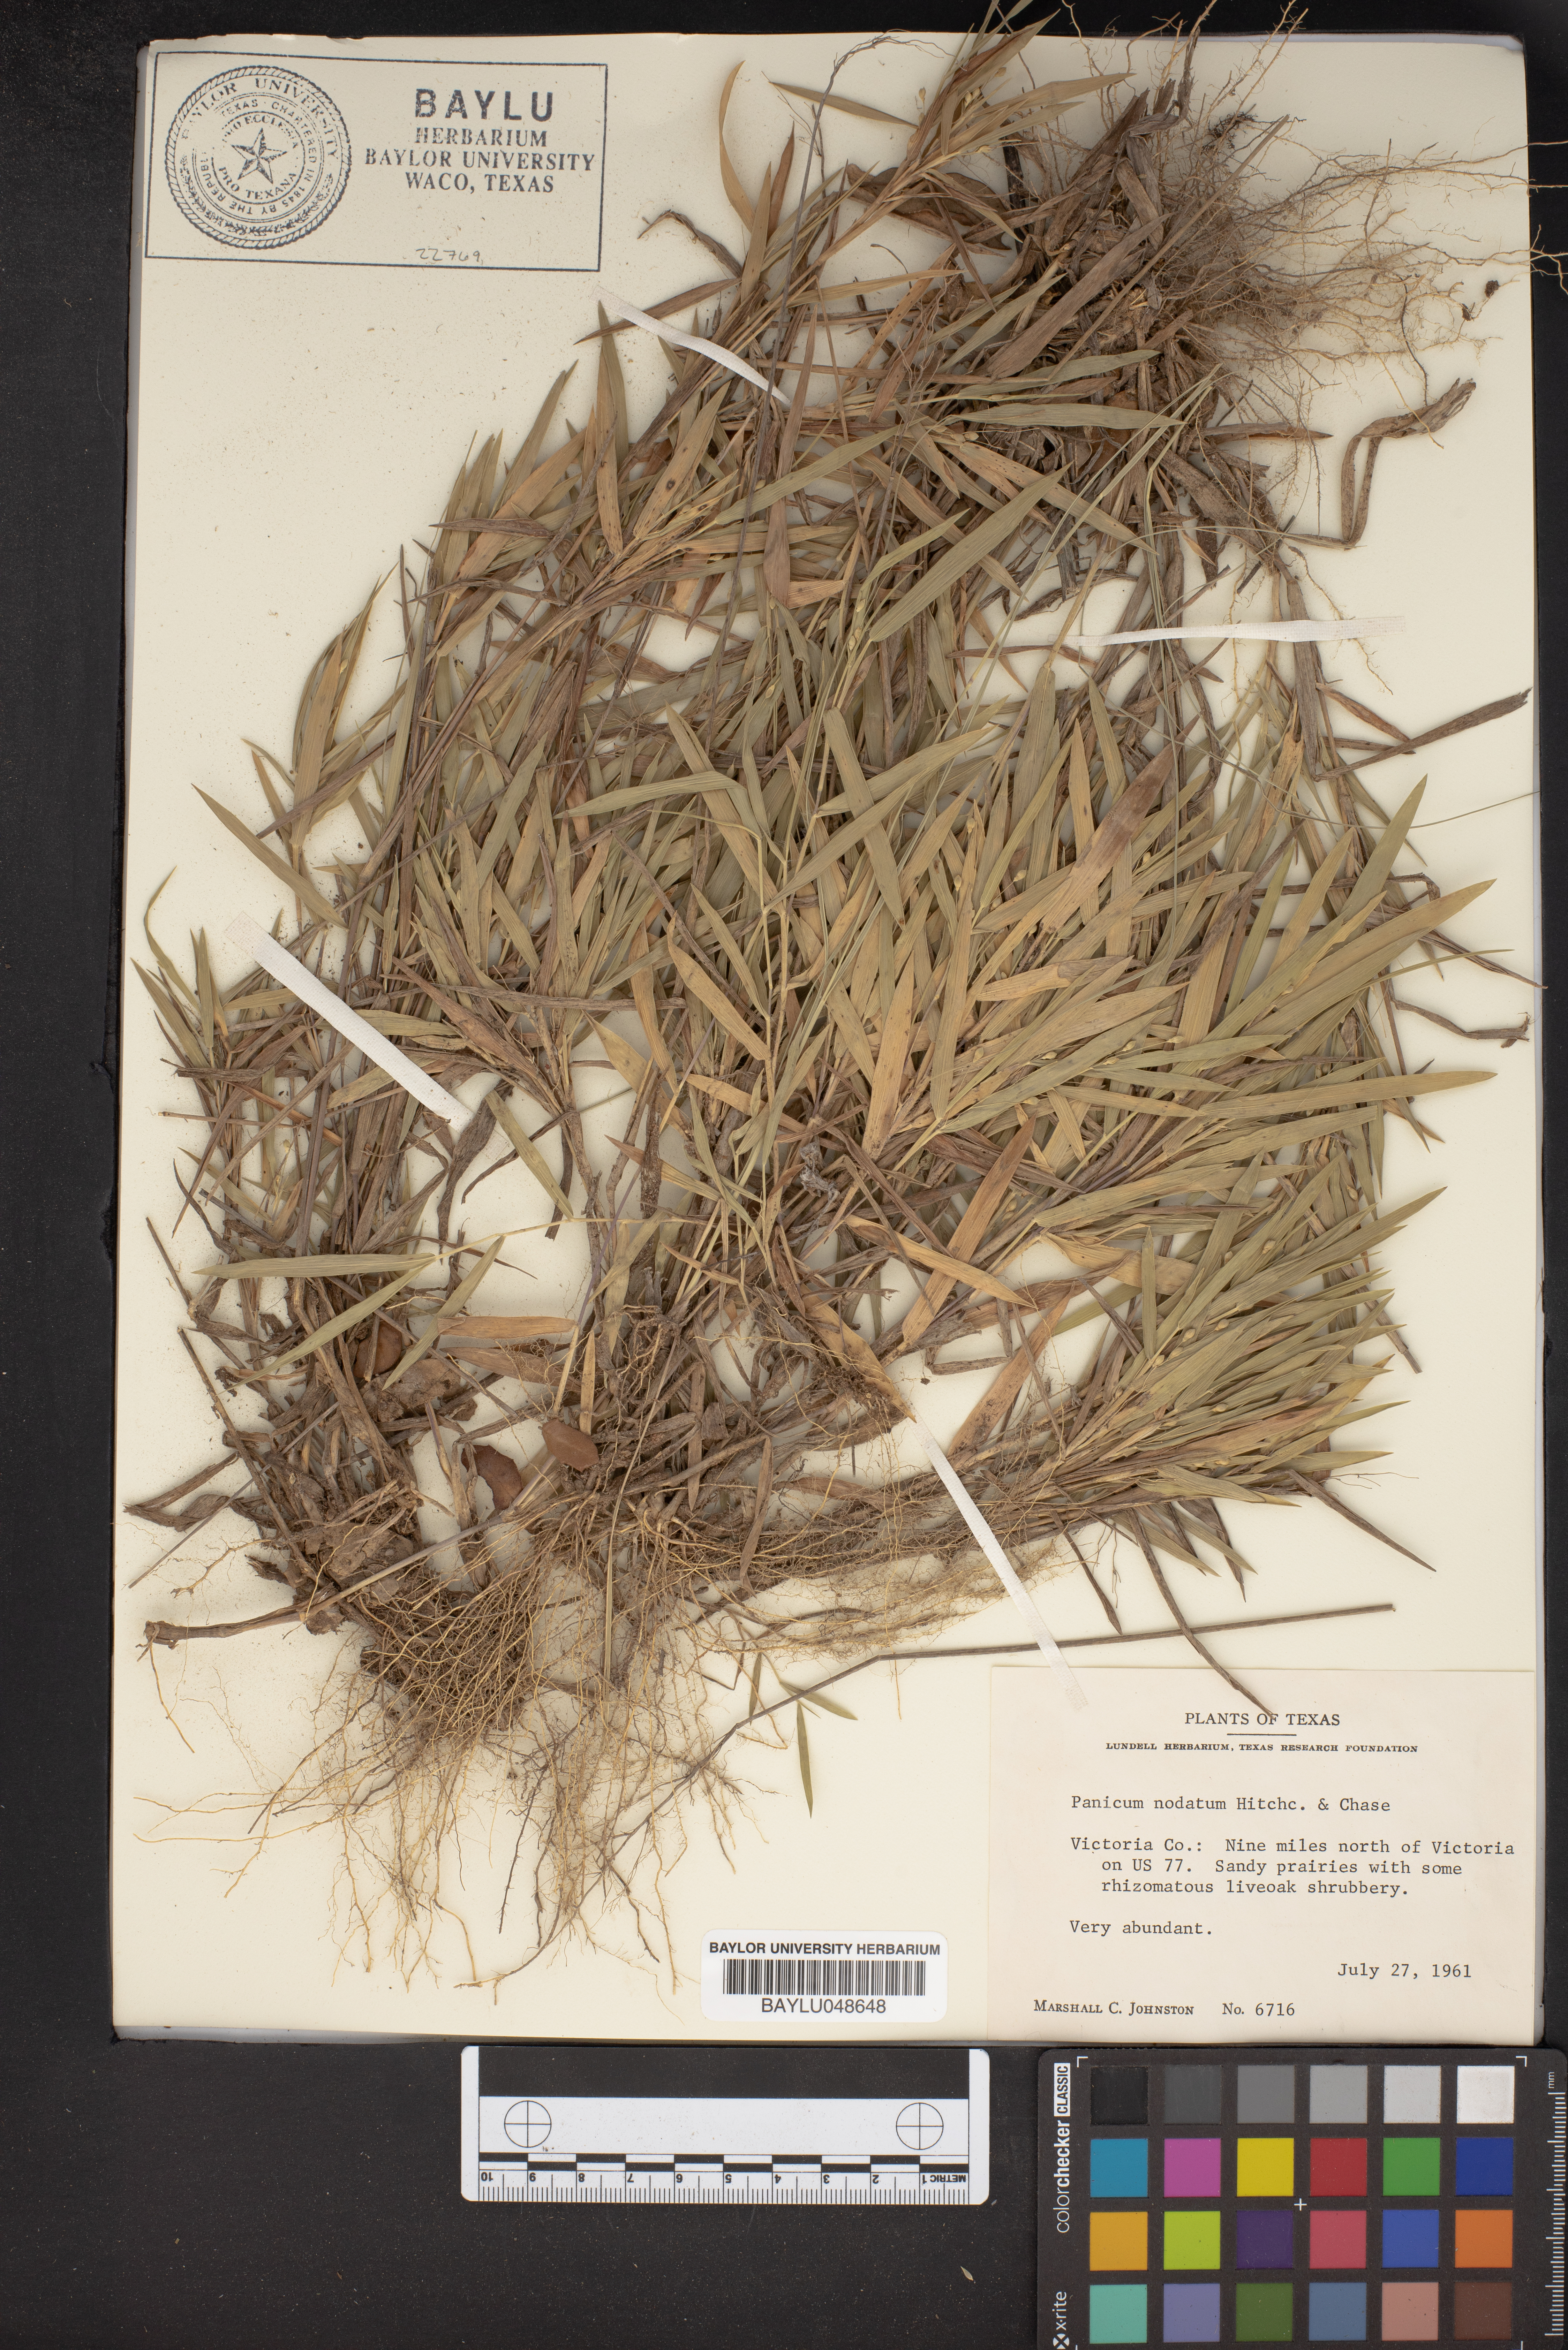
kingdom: Plantae
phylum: Tracheophyta
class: Liliopsida
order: Poales
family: Poaceae
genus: Dichanthelium
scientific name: Dichanthelium nodatum
